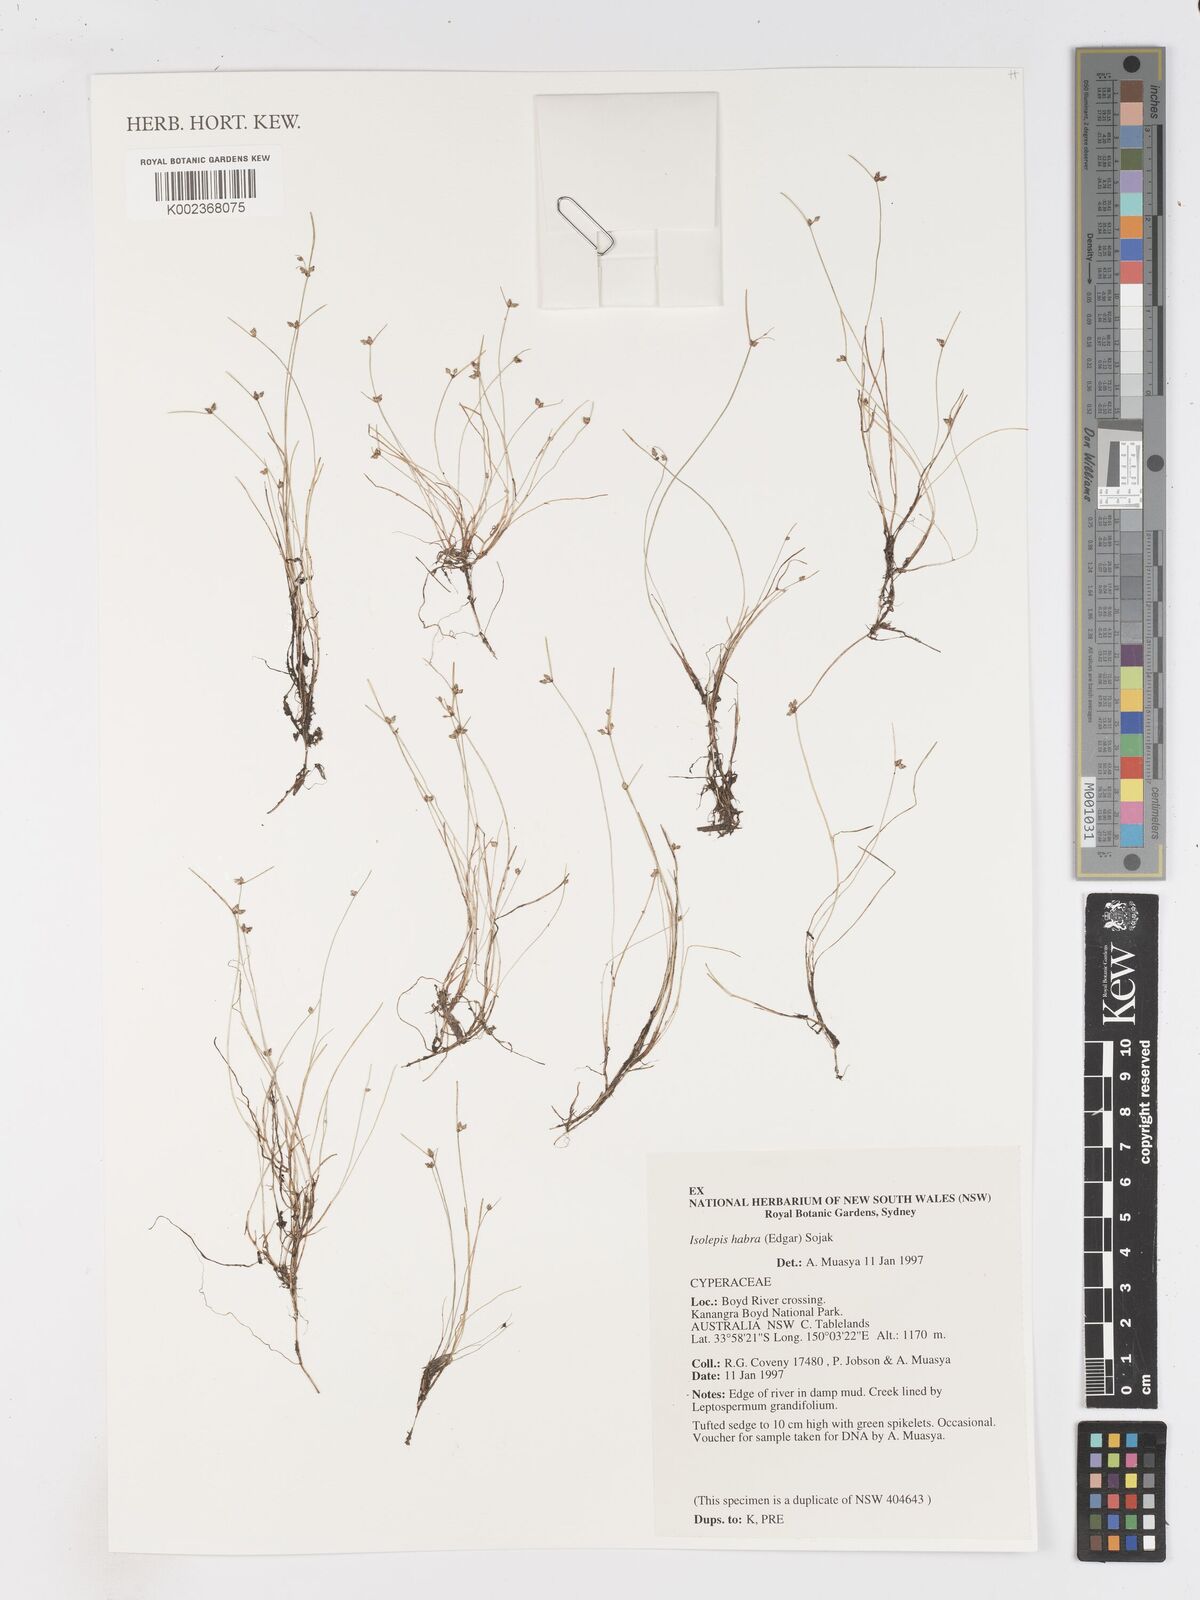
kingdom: Plantae
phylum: Tracheophyta
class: Liliopsida
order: Poales
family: Cyperaceae
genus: Isolepis
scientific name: Isolepis habra
